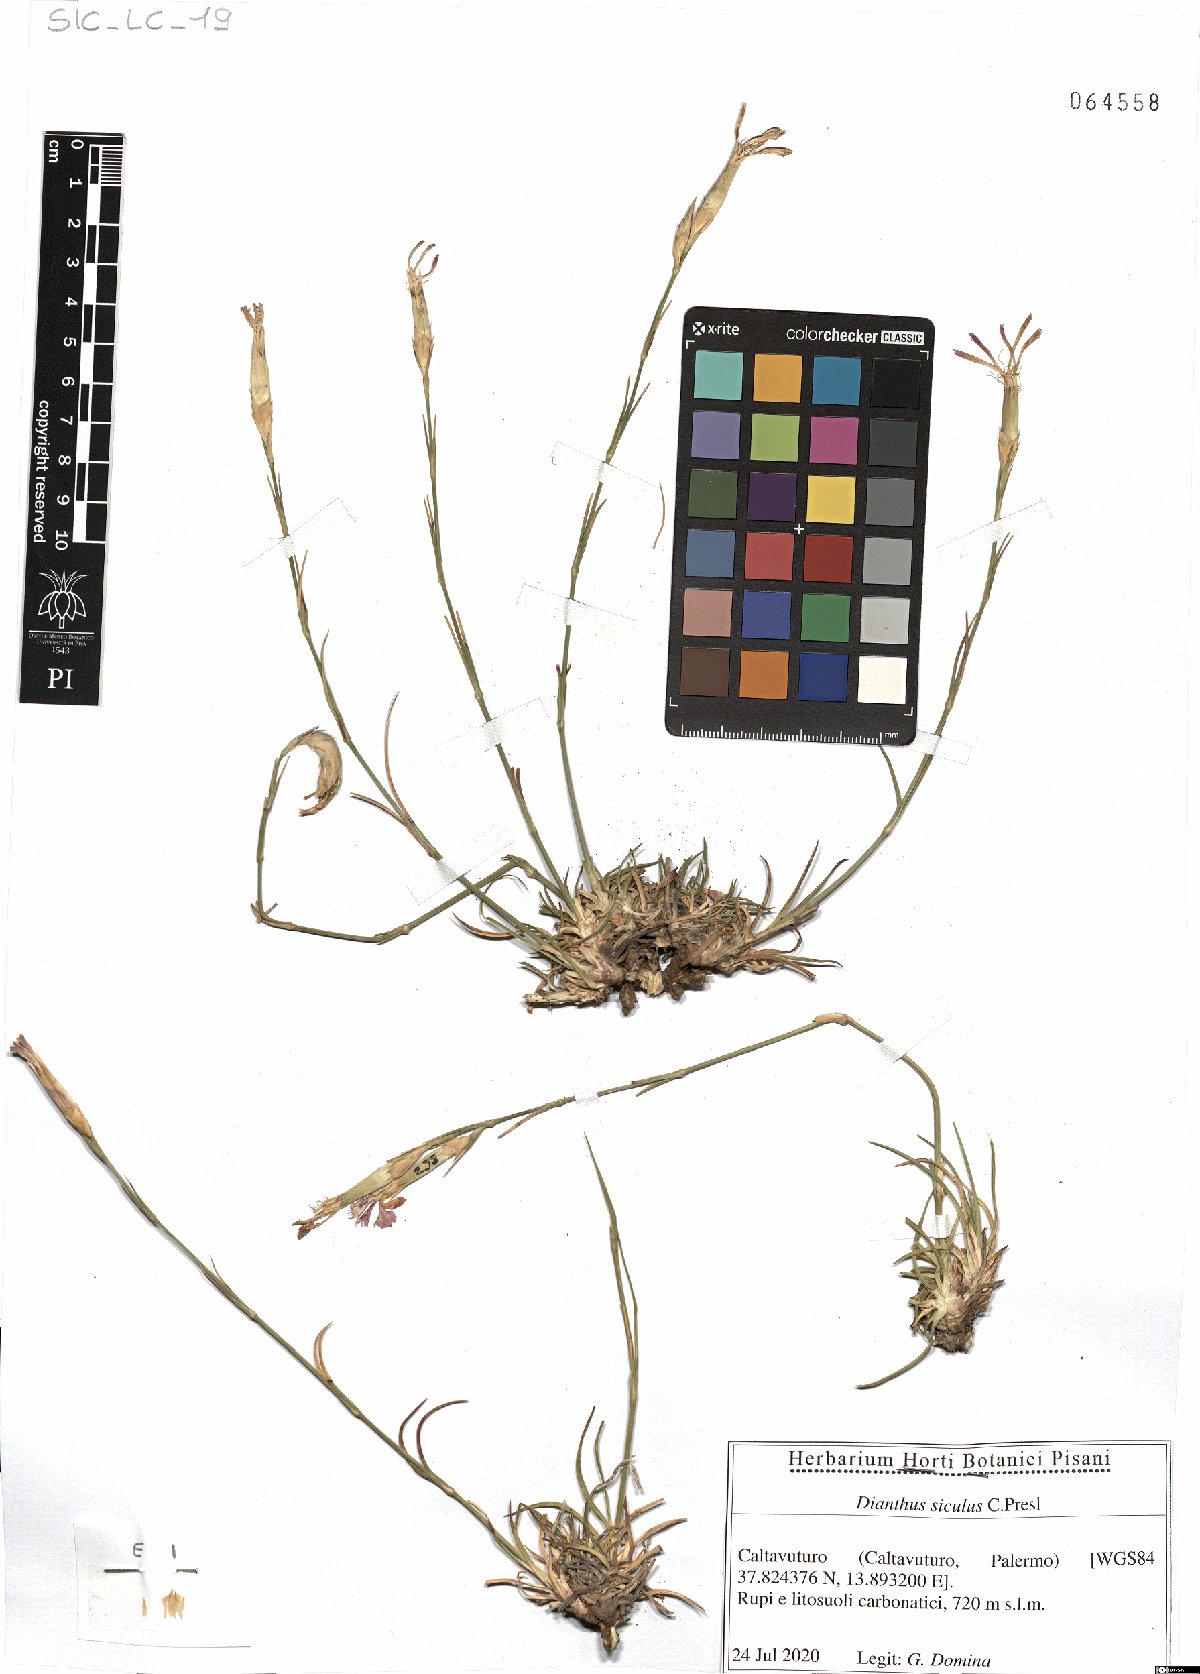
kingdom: Plantae
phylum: Tracheophyta
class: Magnoliopsida
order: Caryophyllales
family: Caryophyllaceae
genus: Dianthus
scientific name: Dianthus siculus
